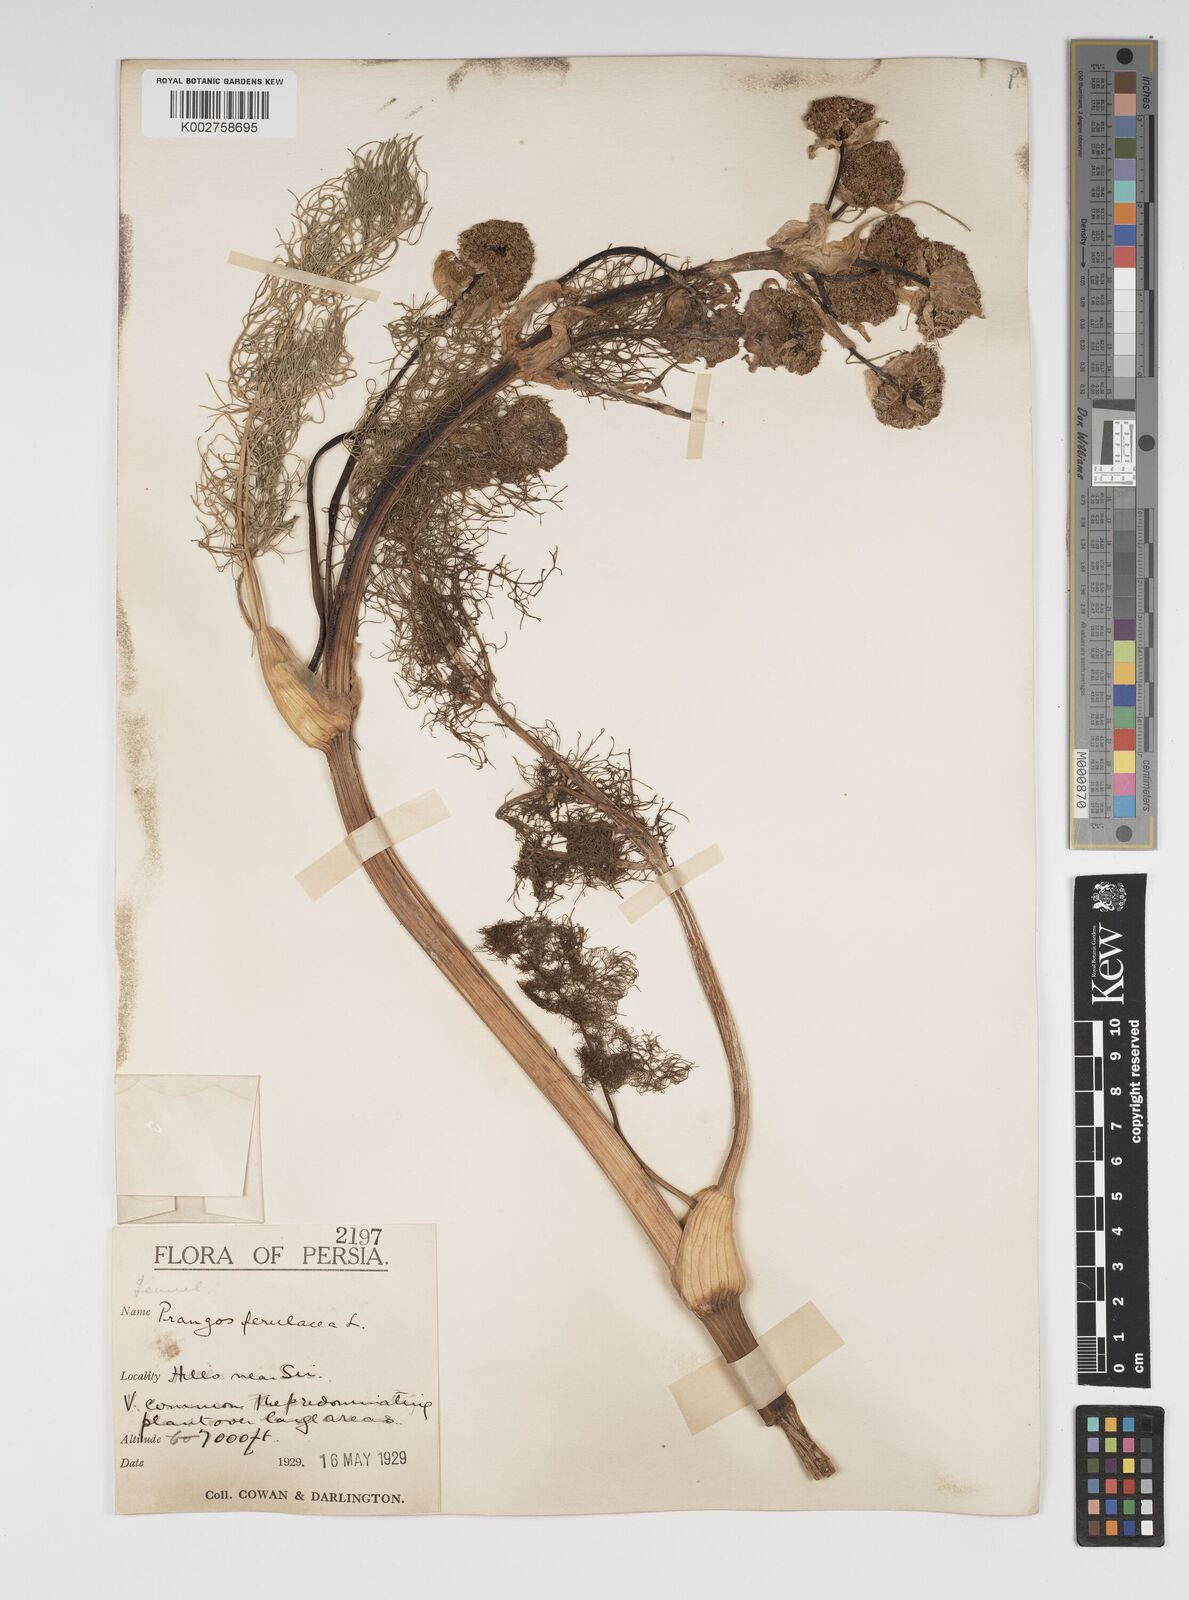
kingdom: Plantae
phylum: Tracheophyta
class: Magnoliopsida
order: Apiales
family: Apiaceae
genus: Prangos
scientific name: Prangos ferulacea
